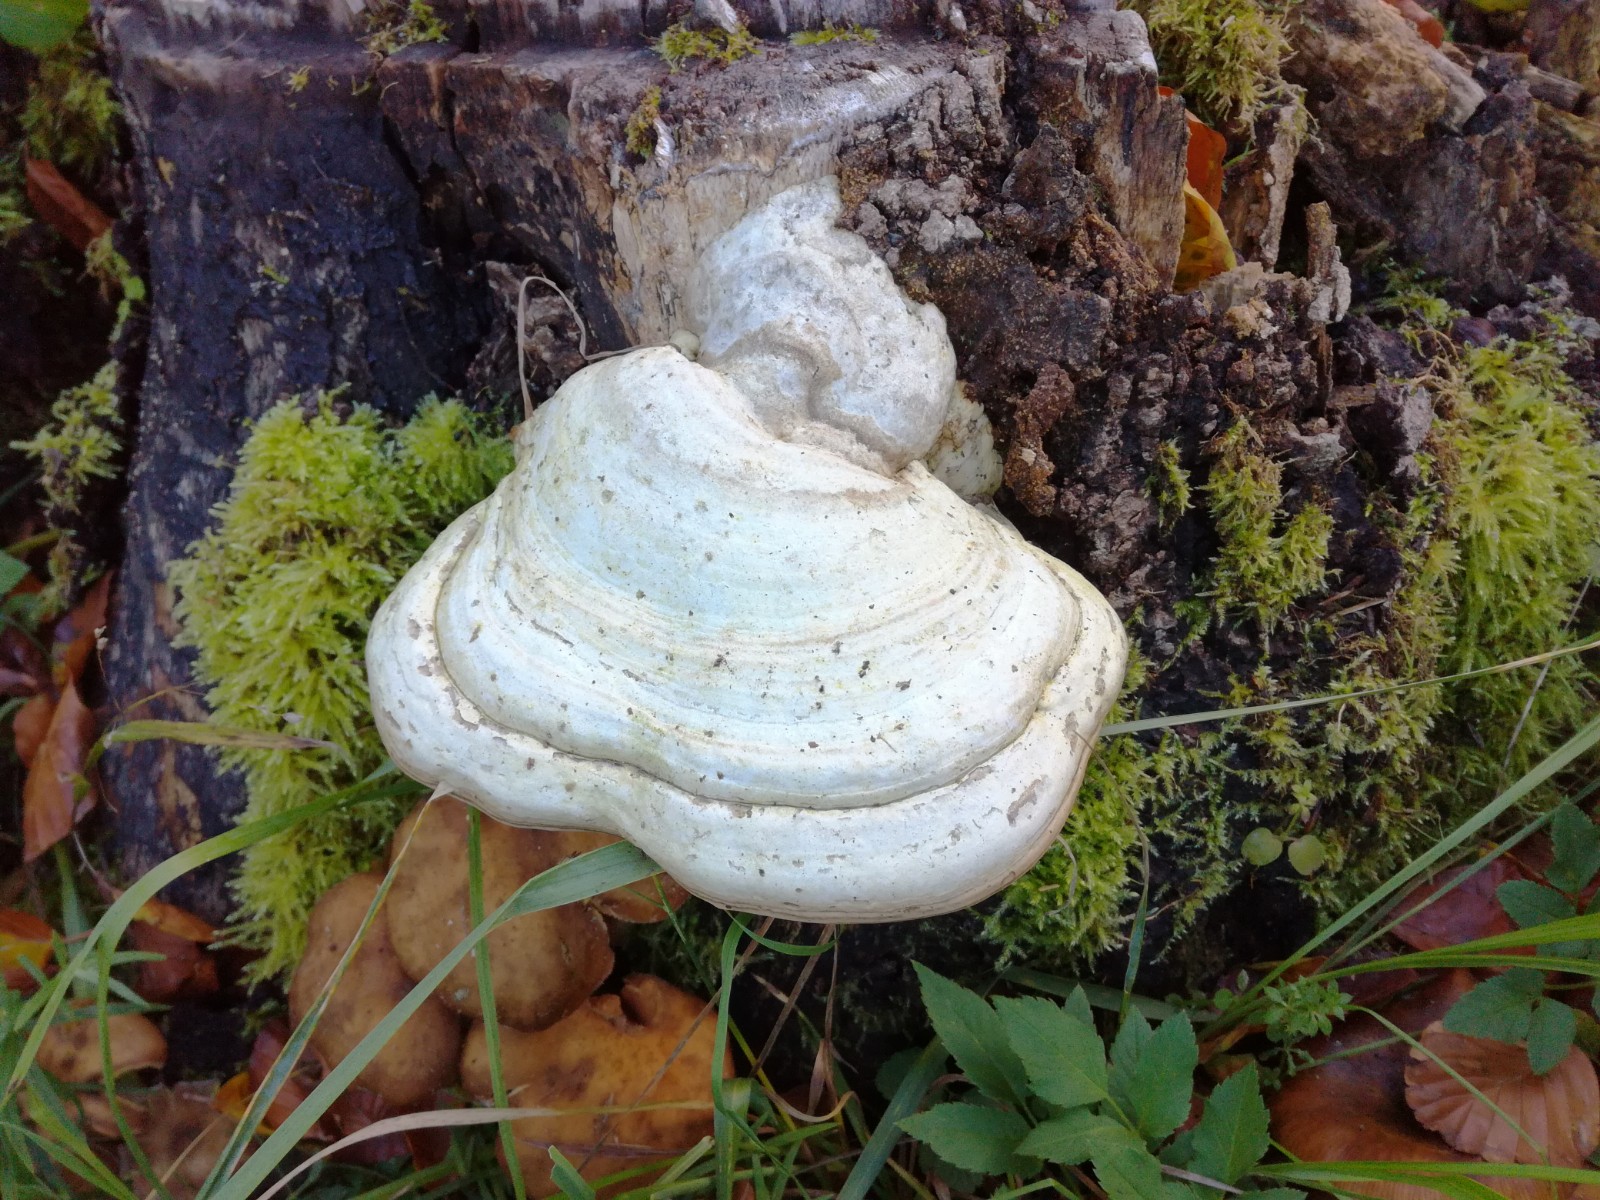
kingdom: Fungi
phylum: Basidiomycota
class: Agaricomycetes
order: Polyporales
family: Polyporaceae
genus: Fomes
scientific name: Fomes fomentarius
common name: tøndersvamp
